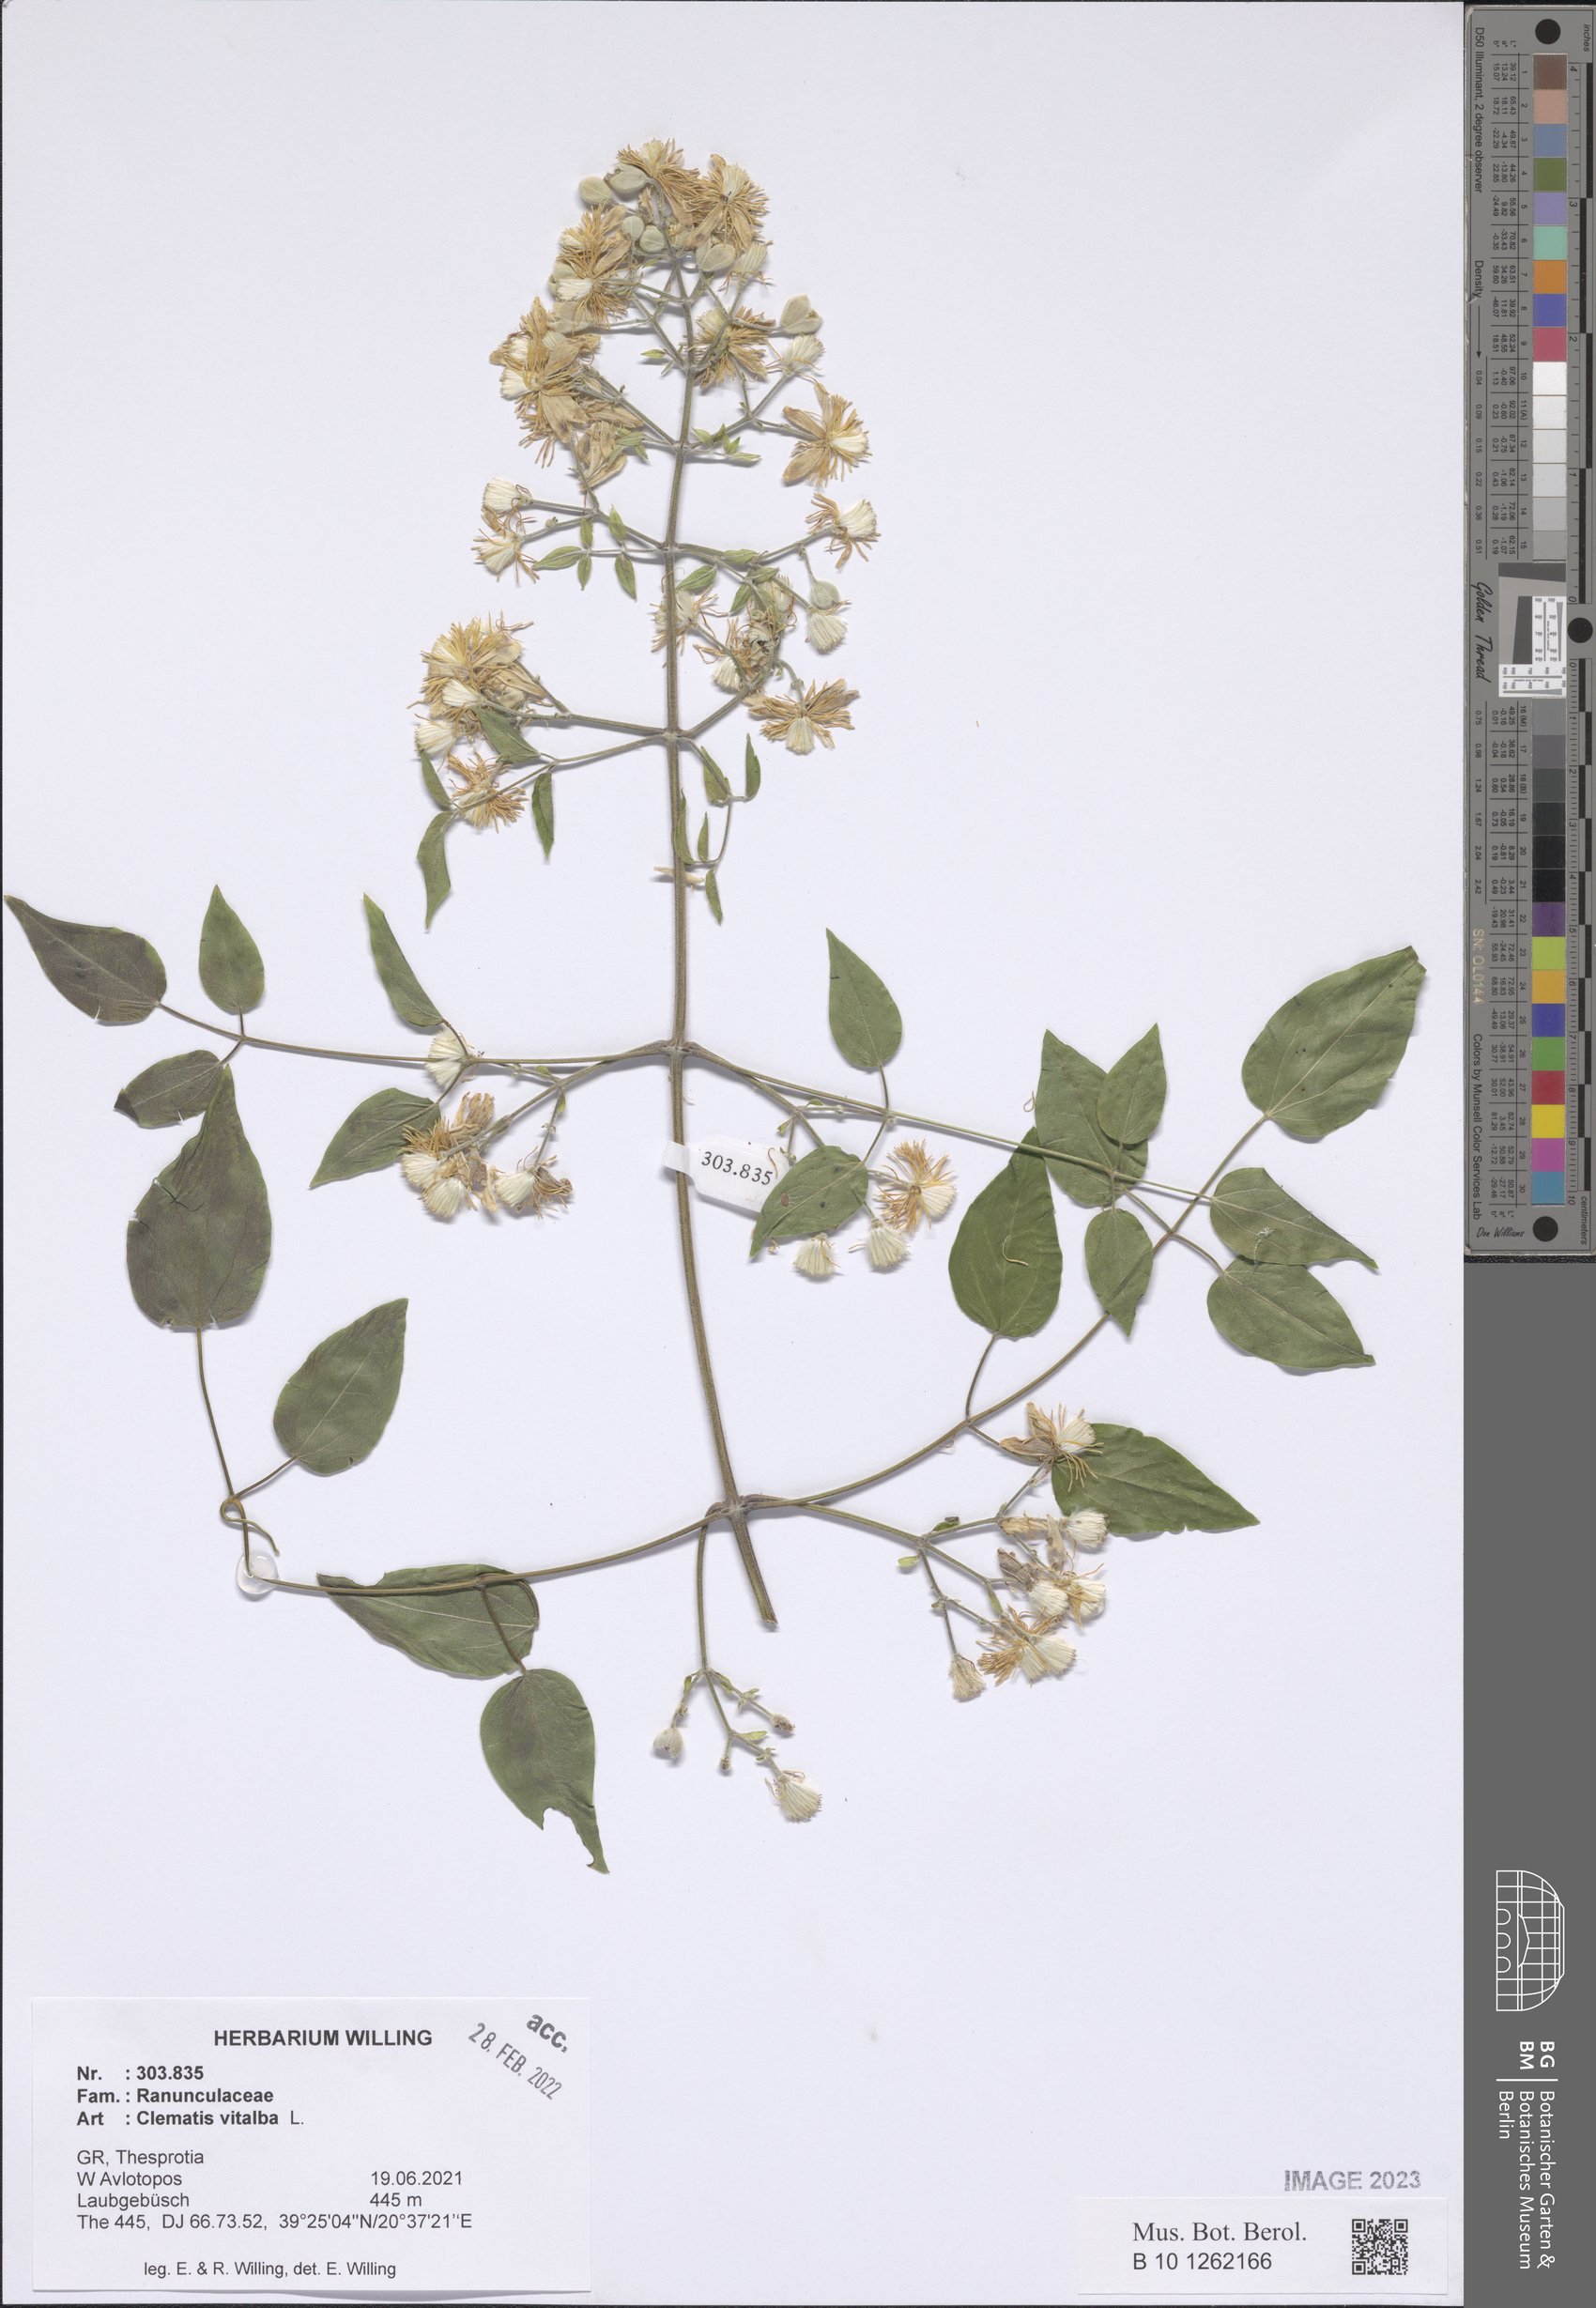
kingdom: Plantae
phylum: Tracheophyta
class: Magnoliopsida
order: Ranunculales
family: Ranunculaceae
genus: Clematis
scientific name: Clematis vitalba
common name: Evergreen clematis
